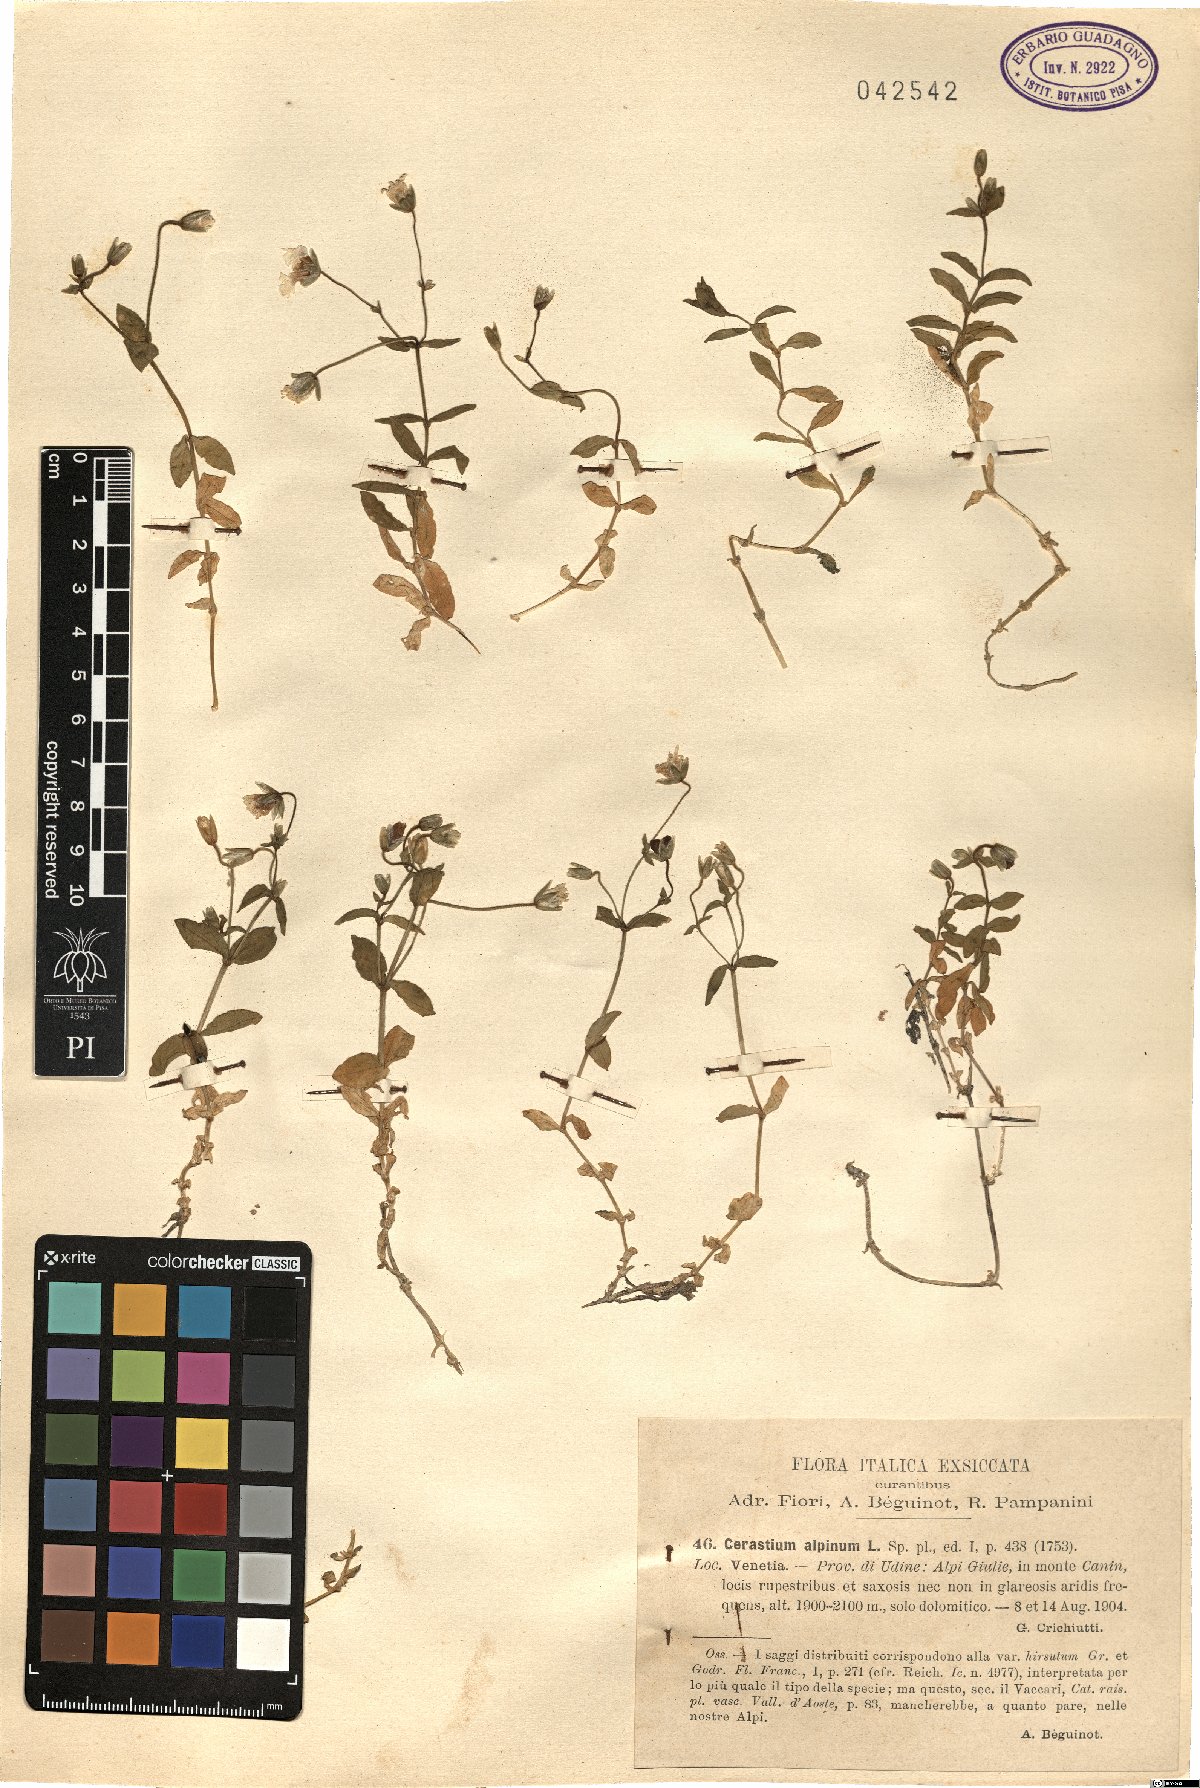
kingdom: Plantae
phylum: Tracheophyta
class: Magnoliopsida
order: Caryophyllales
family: Caryophyllaceae
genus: Cerastium
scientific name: Cerastium alpinum
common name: Alpine mouse-ear
